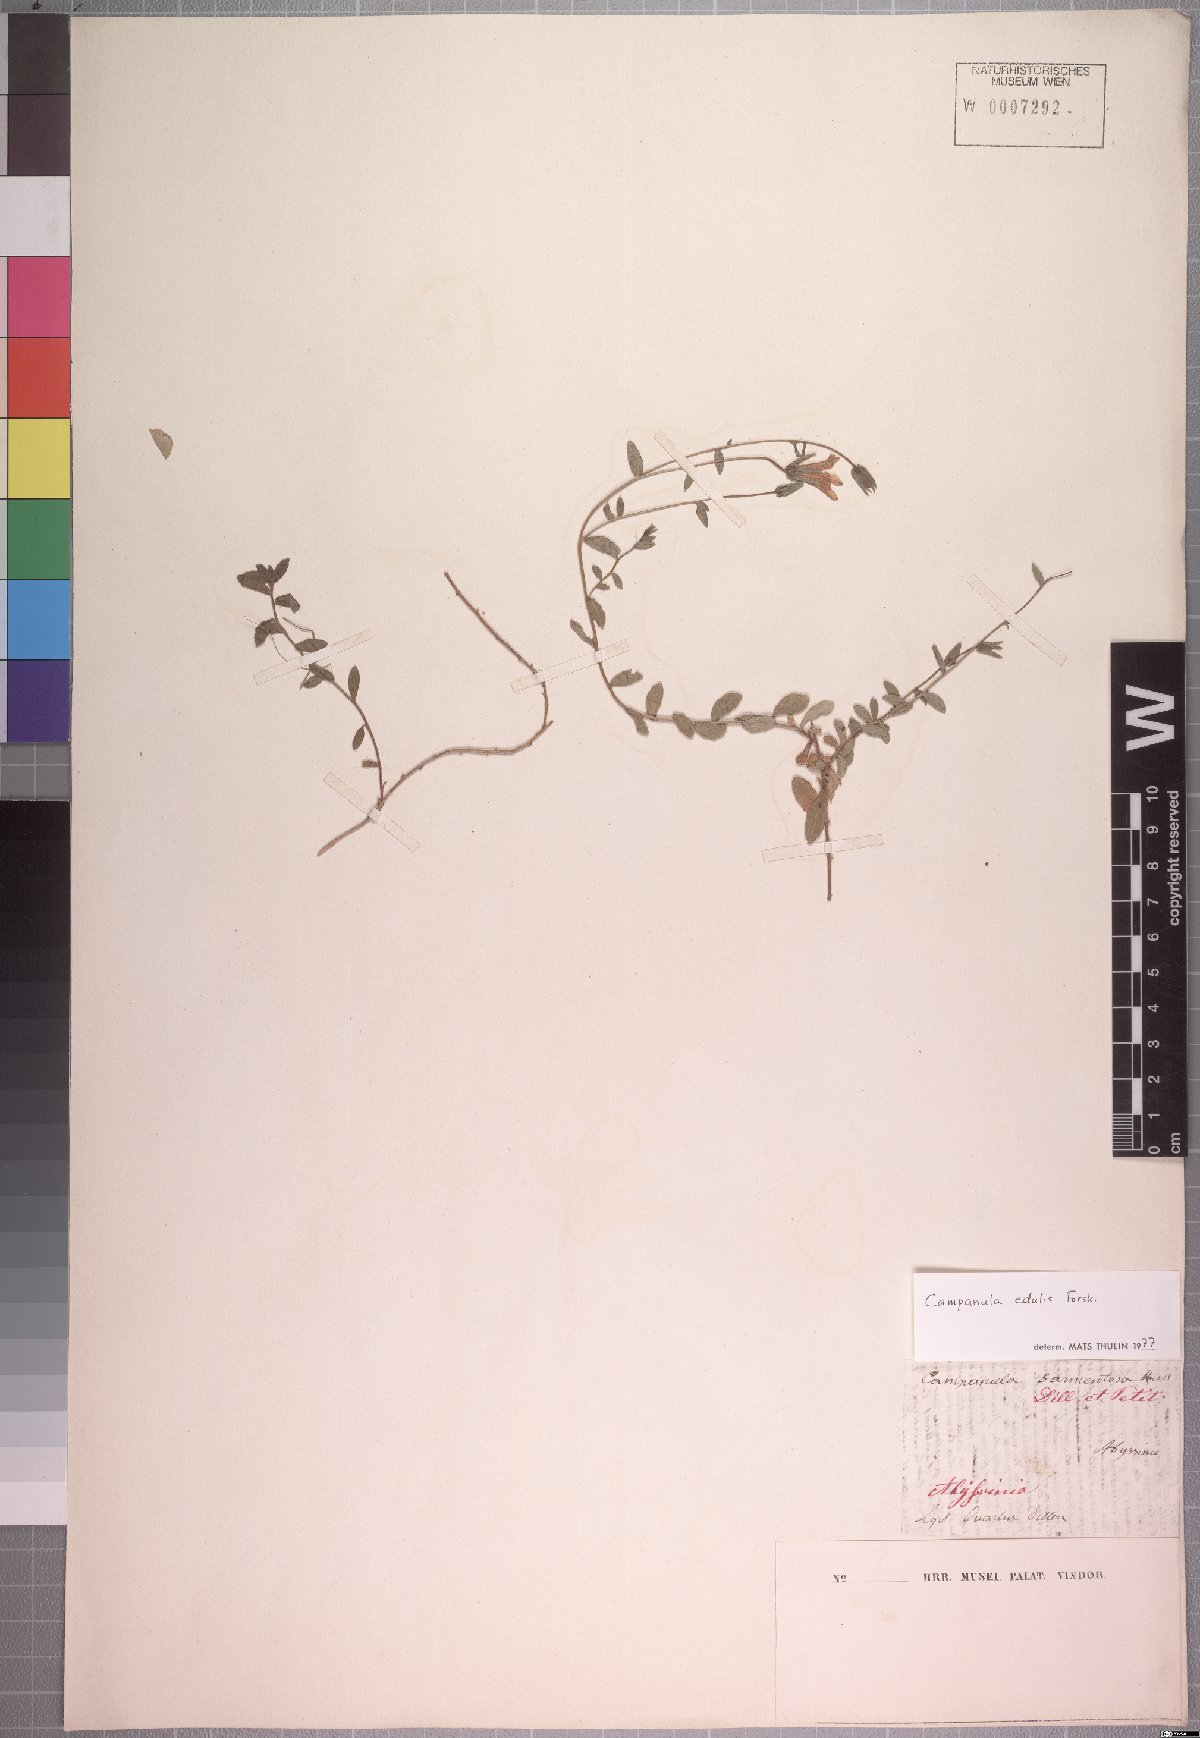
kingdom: Plantae
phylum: Tracheophyta
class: Magnoliopsida
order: Asterales
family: Campanulaceae
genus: Campanula
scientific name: Campanula edulis
